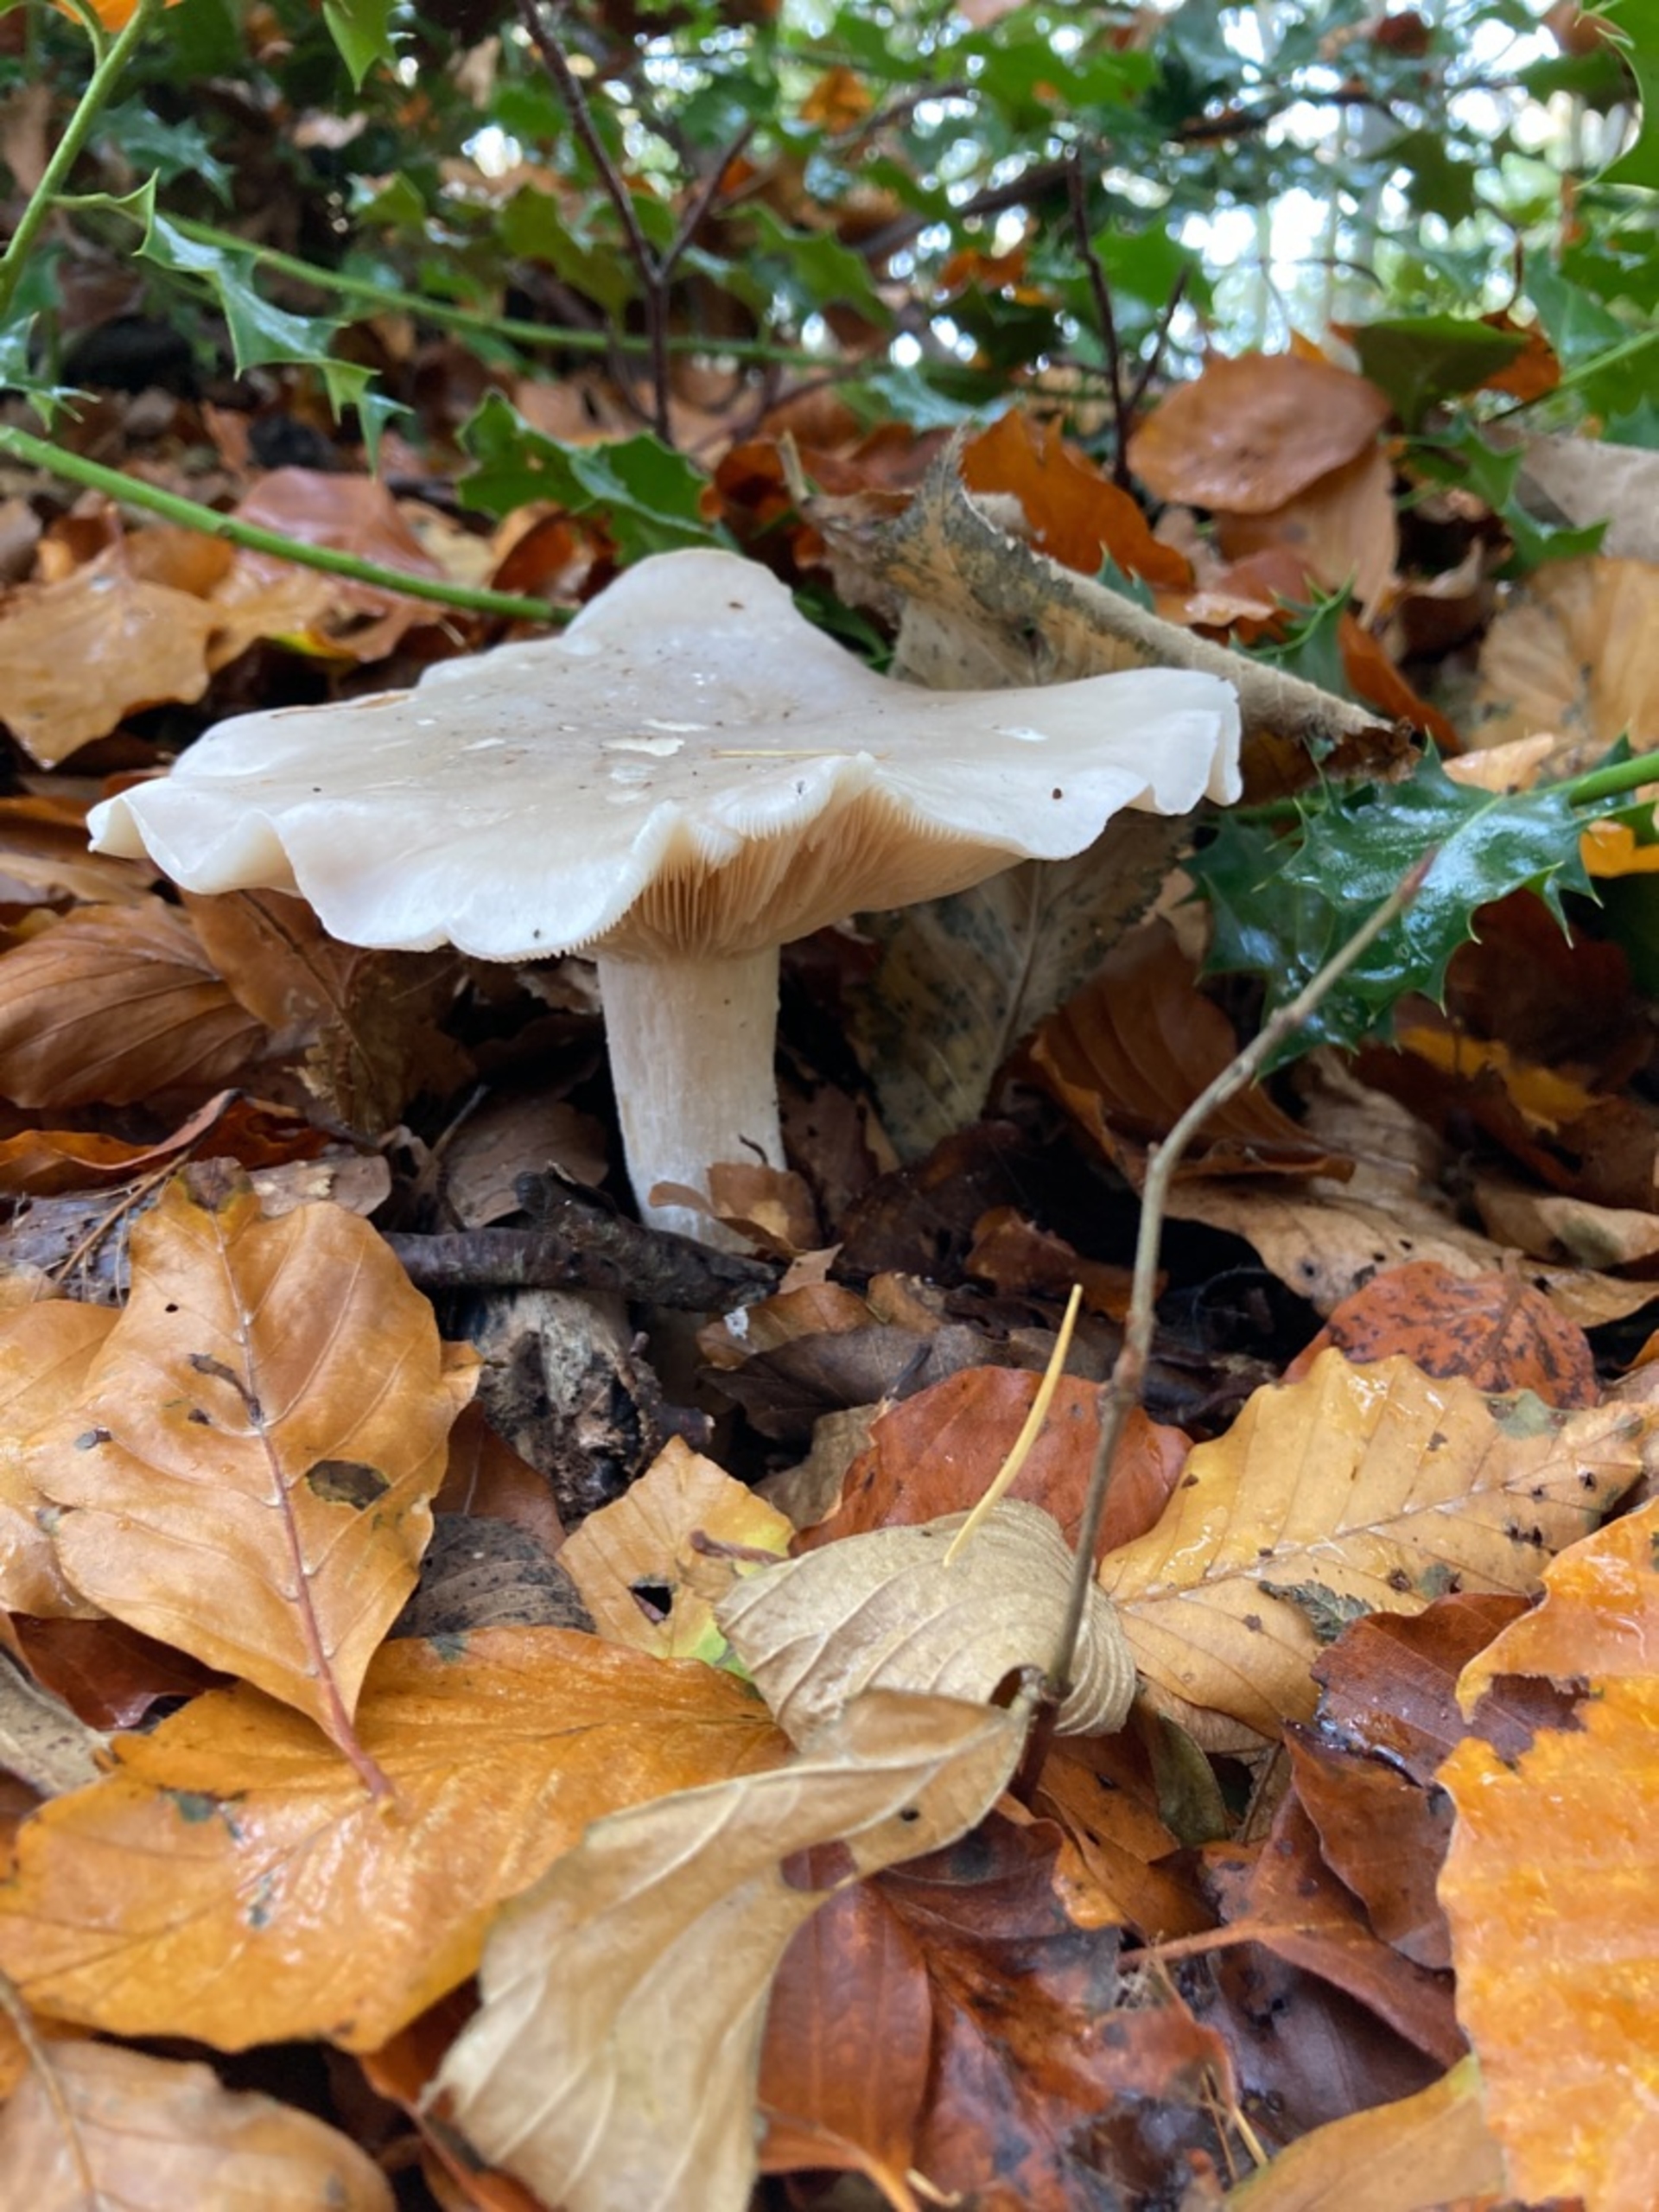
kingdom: Fungi
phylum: Basidiomycota
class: Agaricomycetes
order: Agaricales
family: Tricholomataceae
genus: Clitocybe
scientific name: Clitocybe nebularis
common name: Tåge-tragthat
